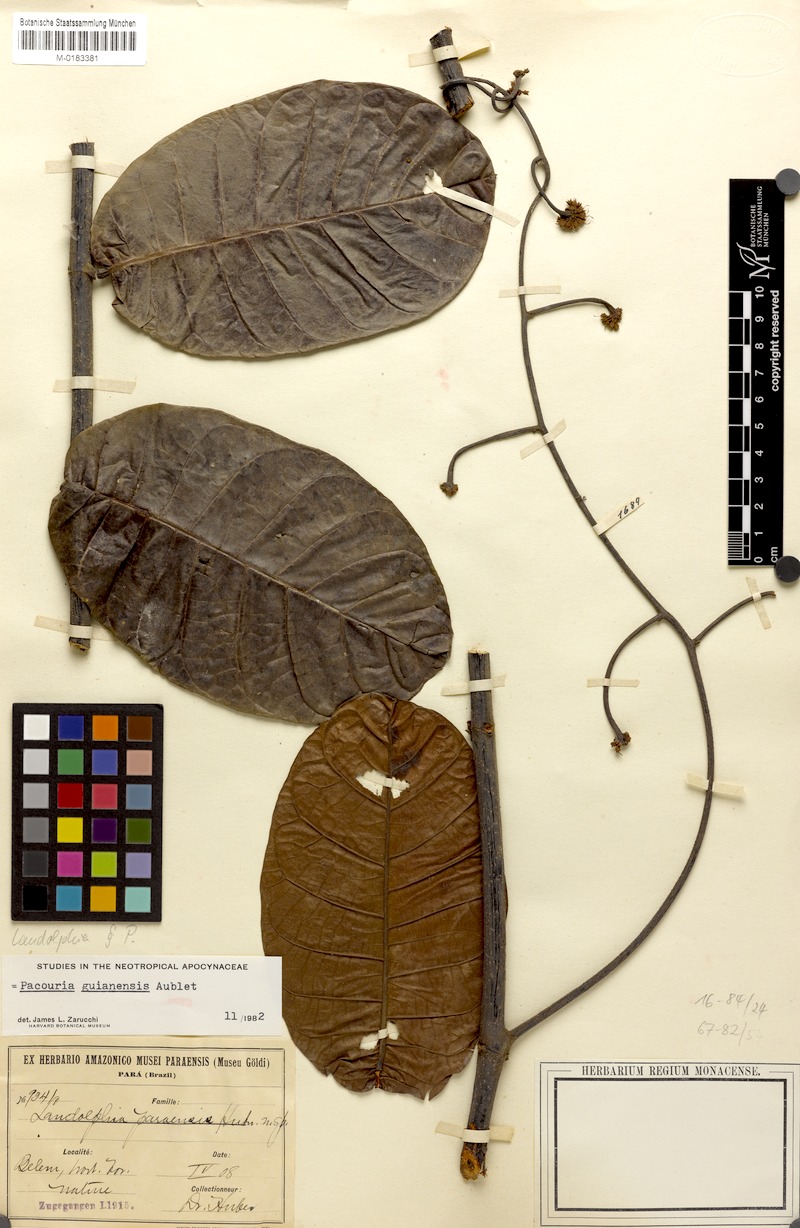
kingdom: Plantae
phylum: Tracheophyta
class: Magnoliopsida
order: Gentianales
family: Apocynaceae
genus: Pacouria
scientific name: Pacouria guianensis
